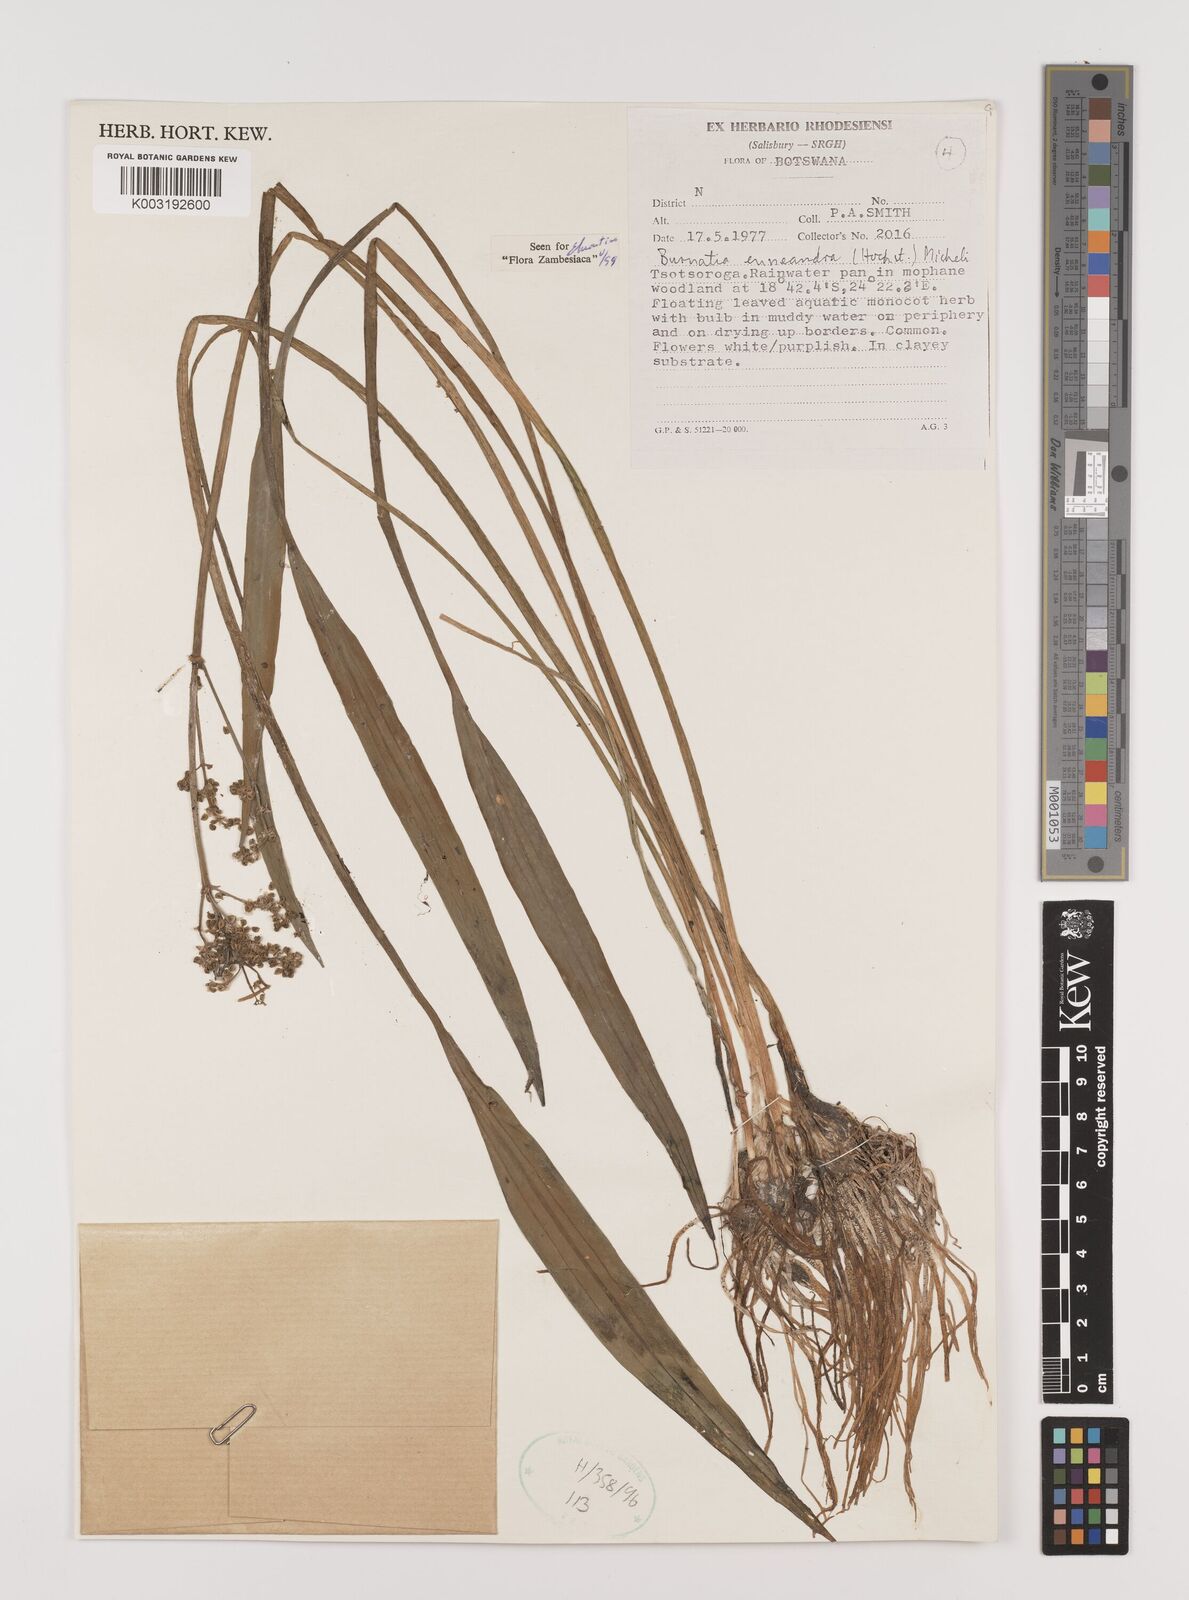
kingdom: Plantae
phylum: Tracheophyta
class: Liliopsida
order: Alismatales
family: Alismataceae
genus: Burnatia
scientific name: Burnatia enneandra
